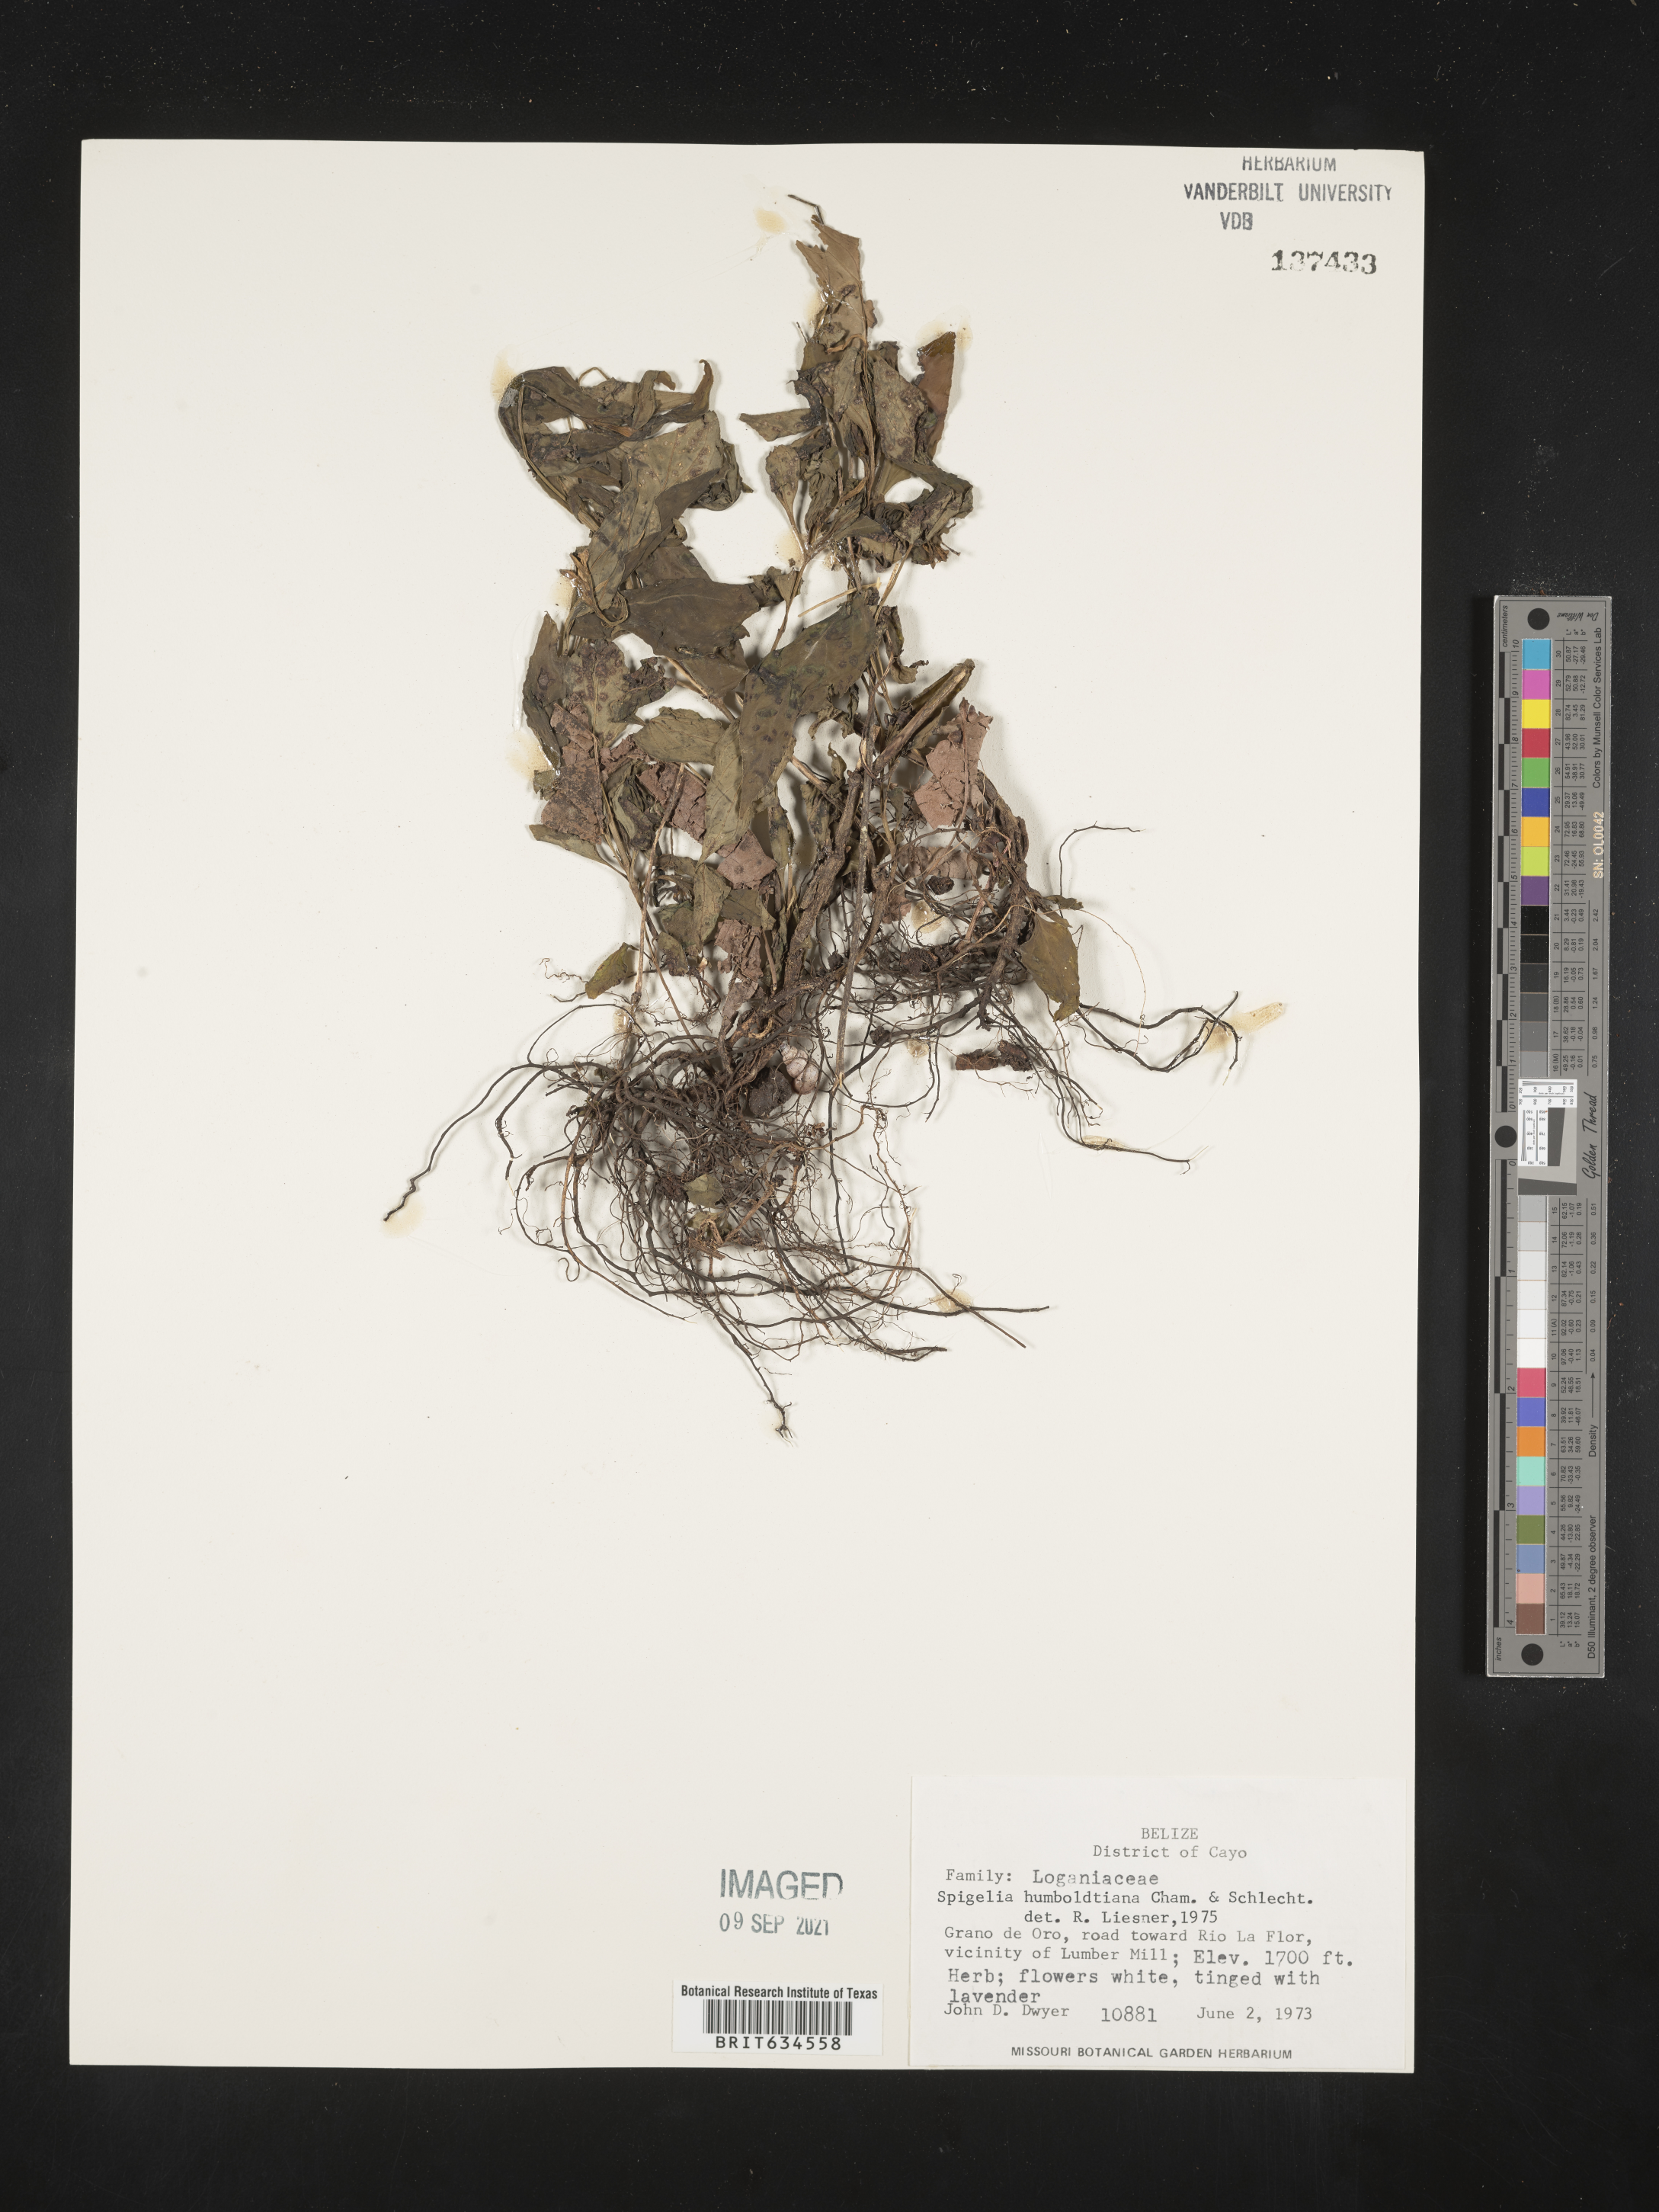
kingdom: Plantae
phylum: Tracheophyta
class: Magnoliopsida
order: Gentianales
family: Loganiaceae
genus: Spigelia
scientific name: Spigelia
